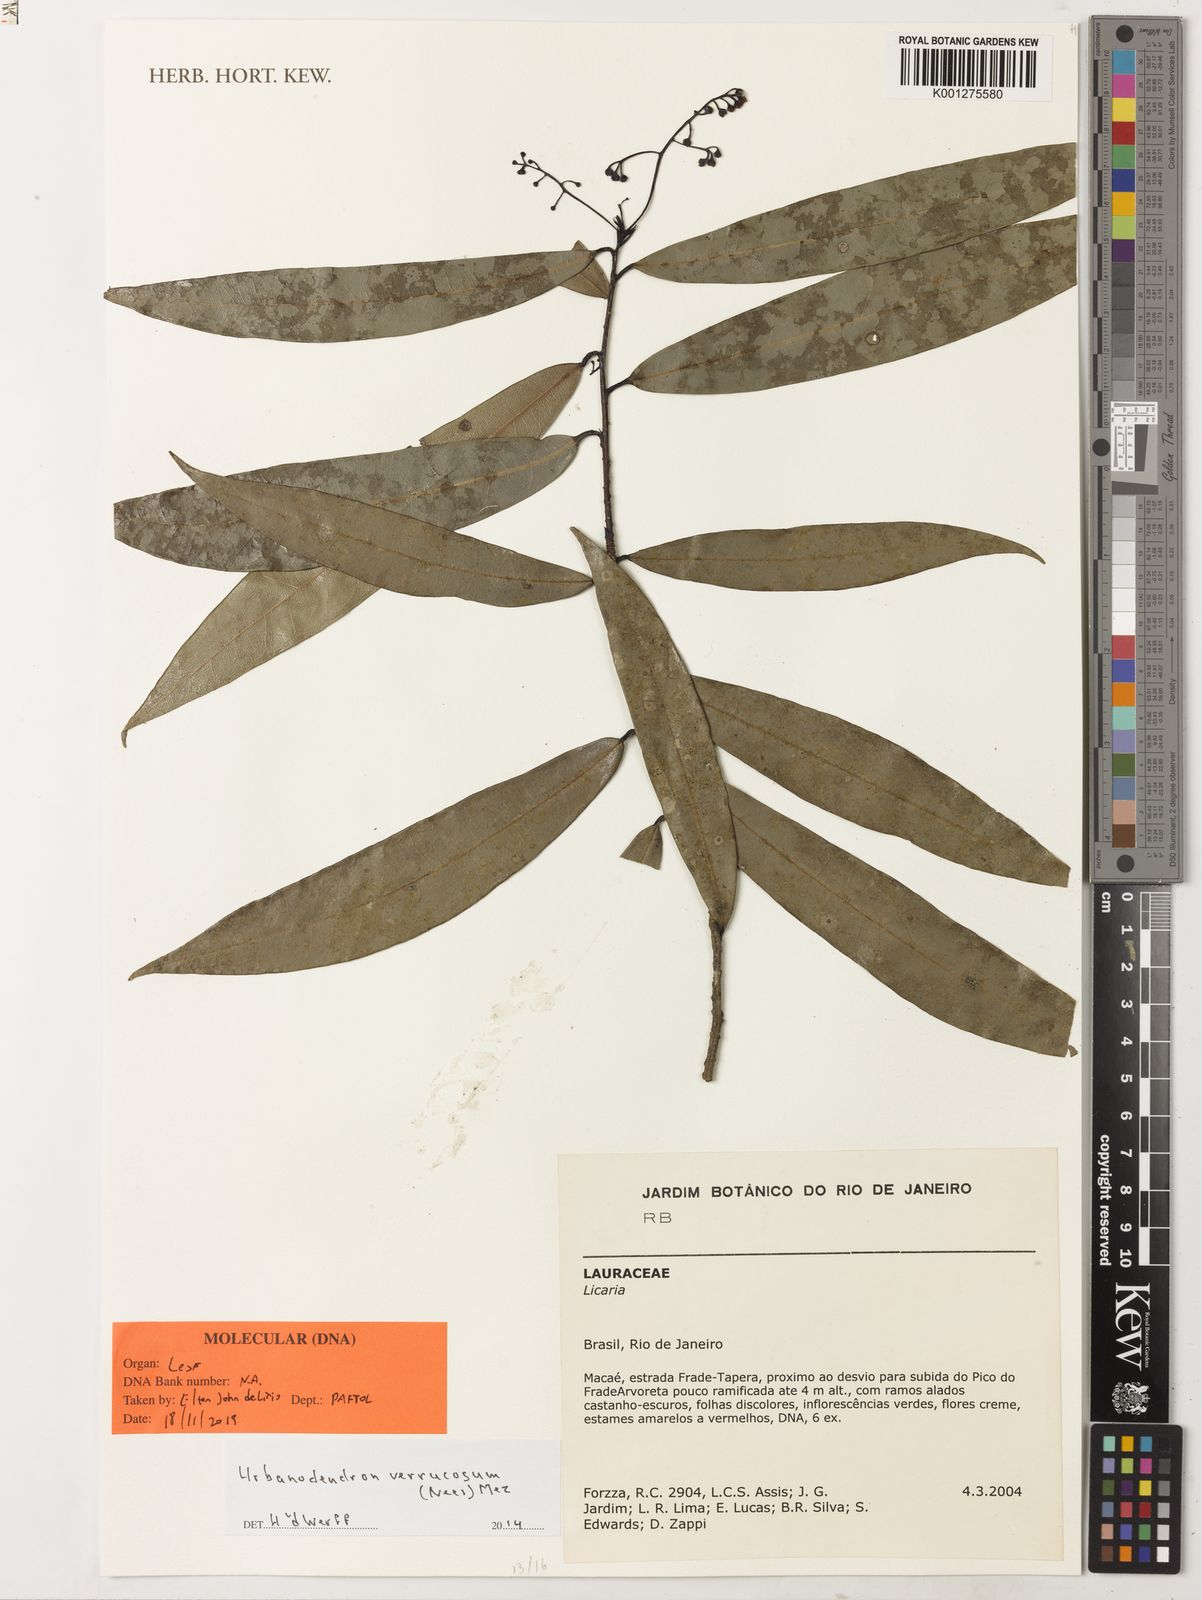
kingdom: Plantae
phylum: Tracheophyta
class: Magnoliopsida
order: Laurales
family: Lauraceae
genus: Urbanodendron
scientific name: Urbanodendron verrucosum
